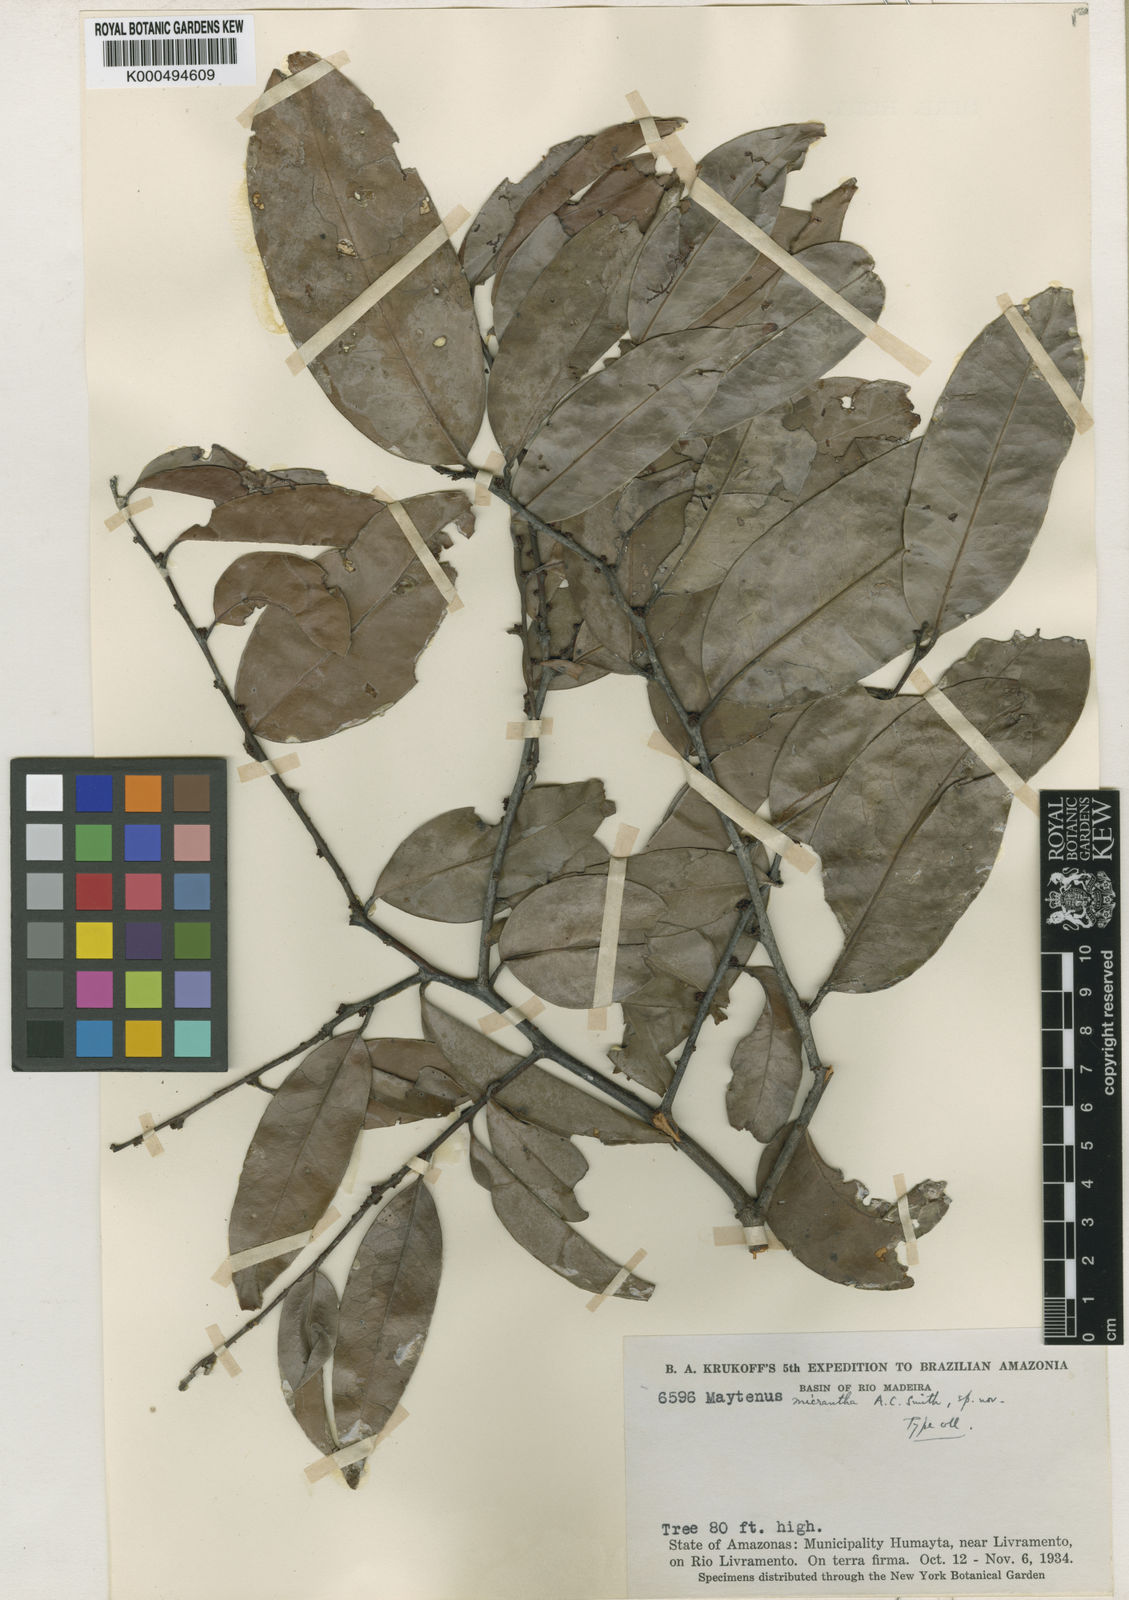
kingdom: Plantae
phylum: Tracheophyta
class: Magnoliopsida
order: Celastrales
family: Celastraceae
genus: Monteverdia
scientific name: Monteverdia guyanensis
